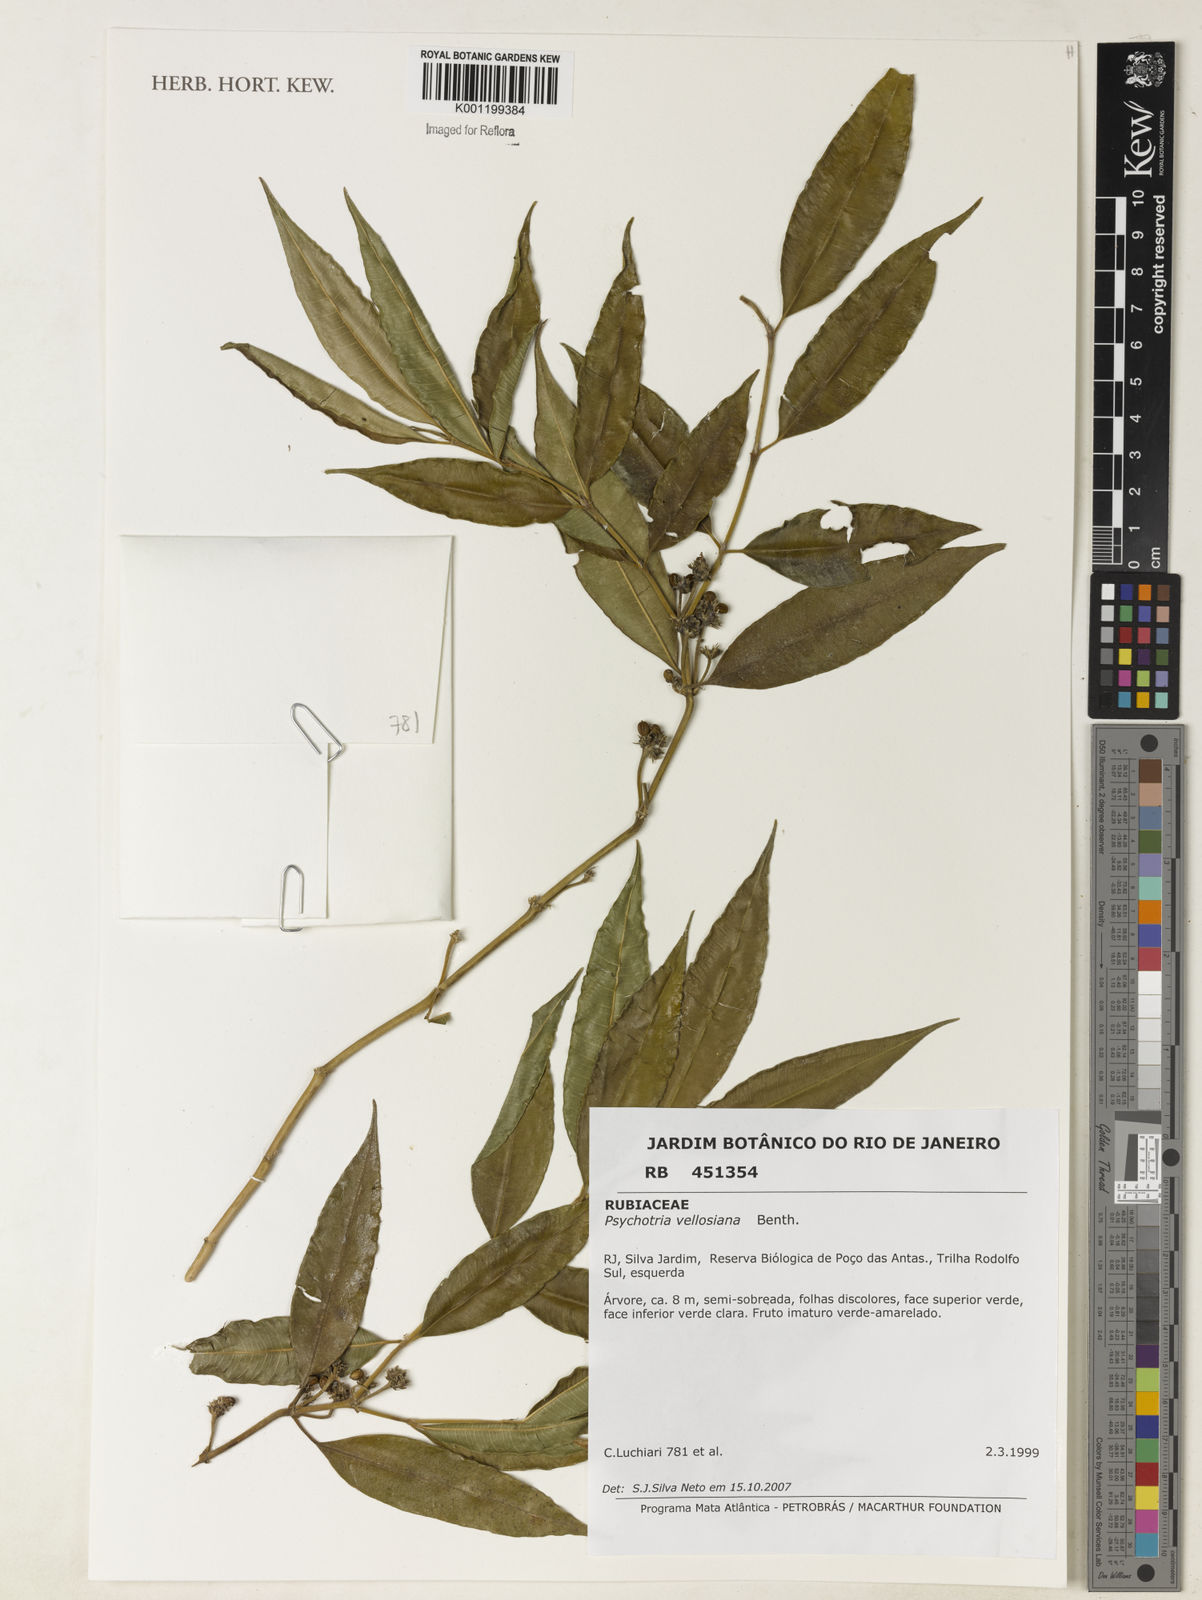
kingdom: Plantae
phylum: Tracheophyta
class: Magnoliopsida
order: Gentianales
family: Rubiaceae
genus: Palicourea
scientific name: Palicourea sessilis
